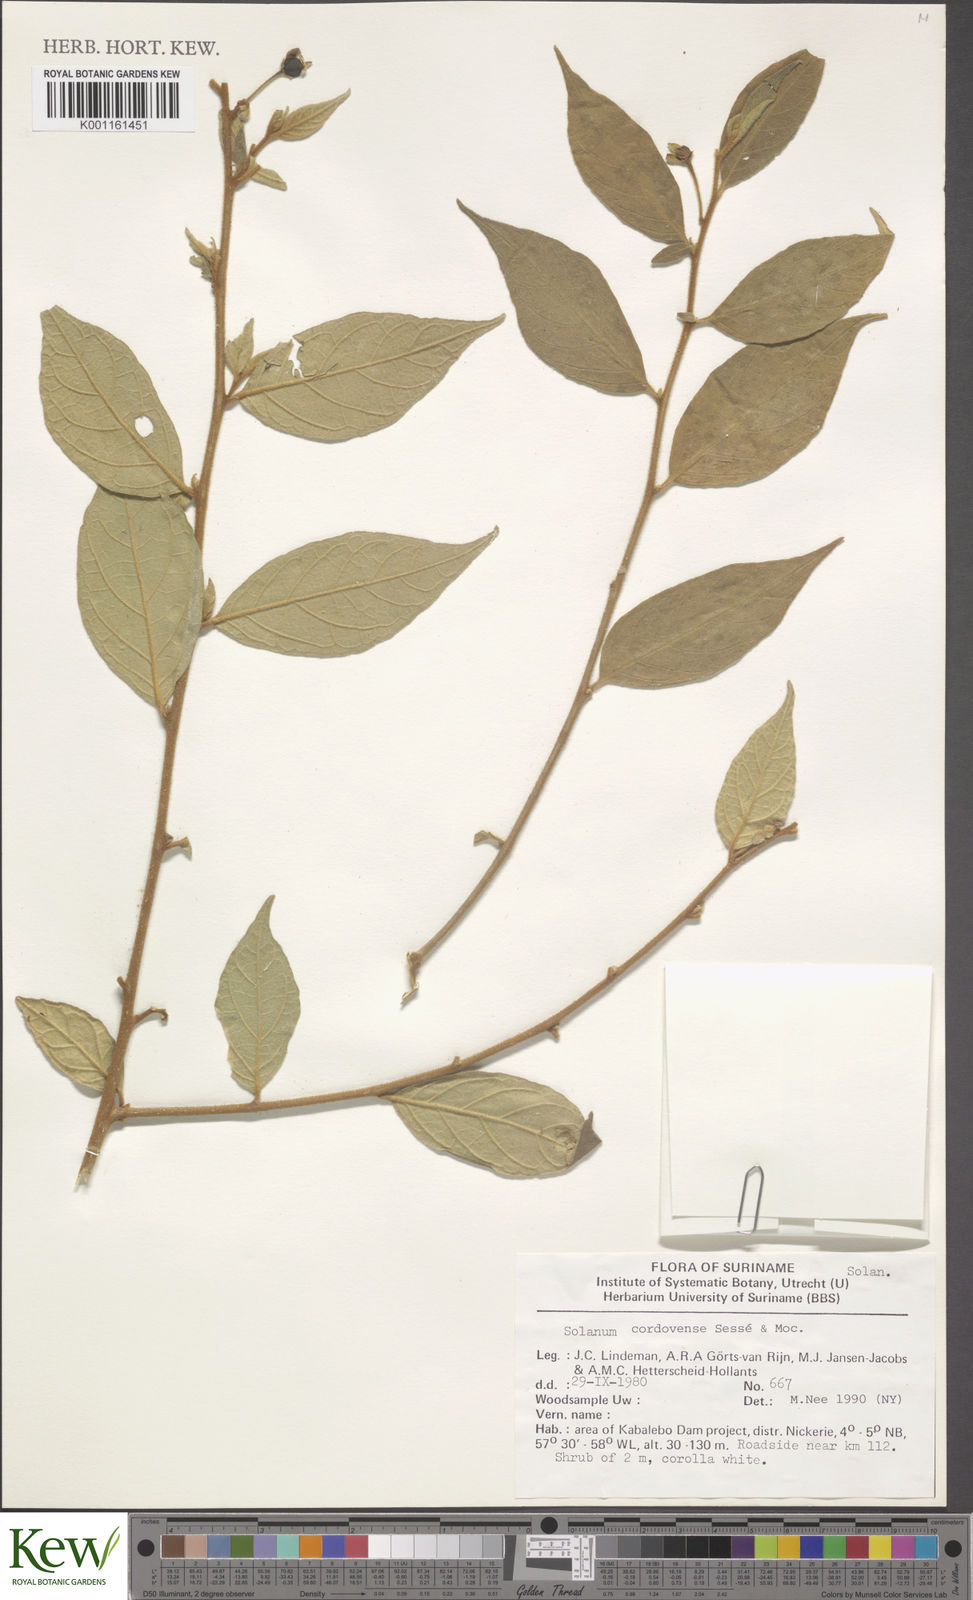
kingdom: Plantae
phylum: Tracheophyta
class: Magnoliopsida
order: Solanales
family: Solanaceae
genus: Solanum
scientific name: Solanum
